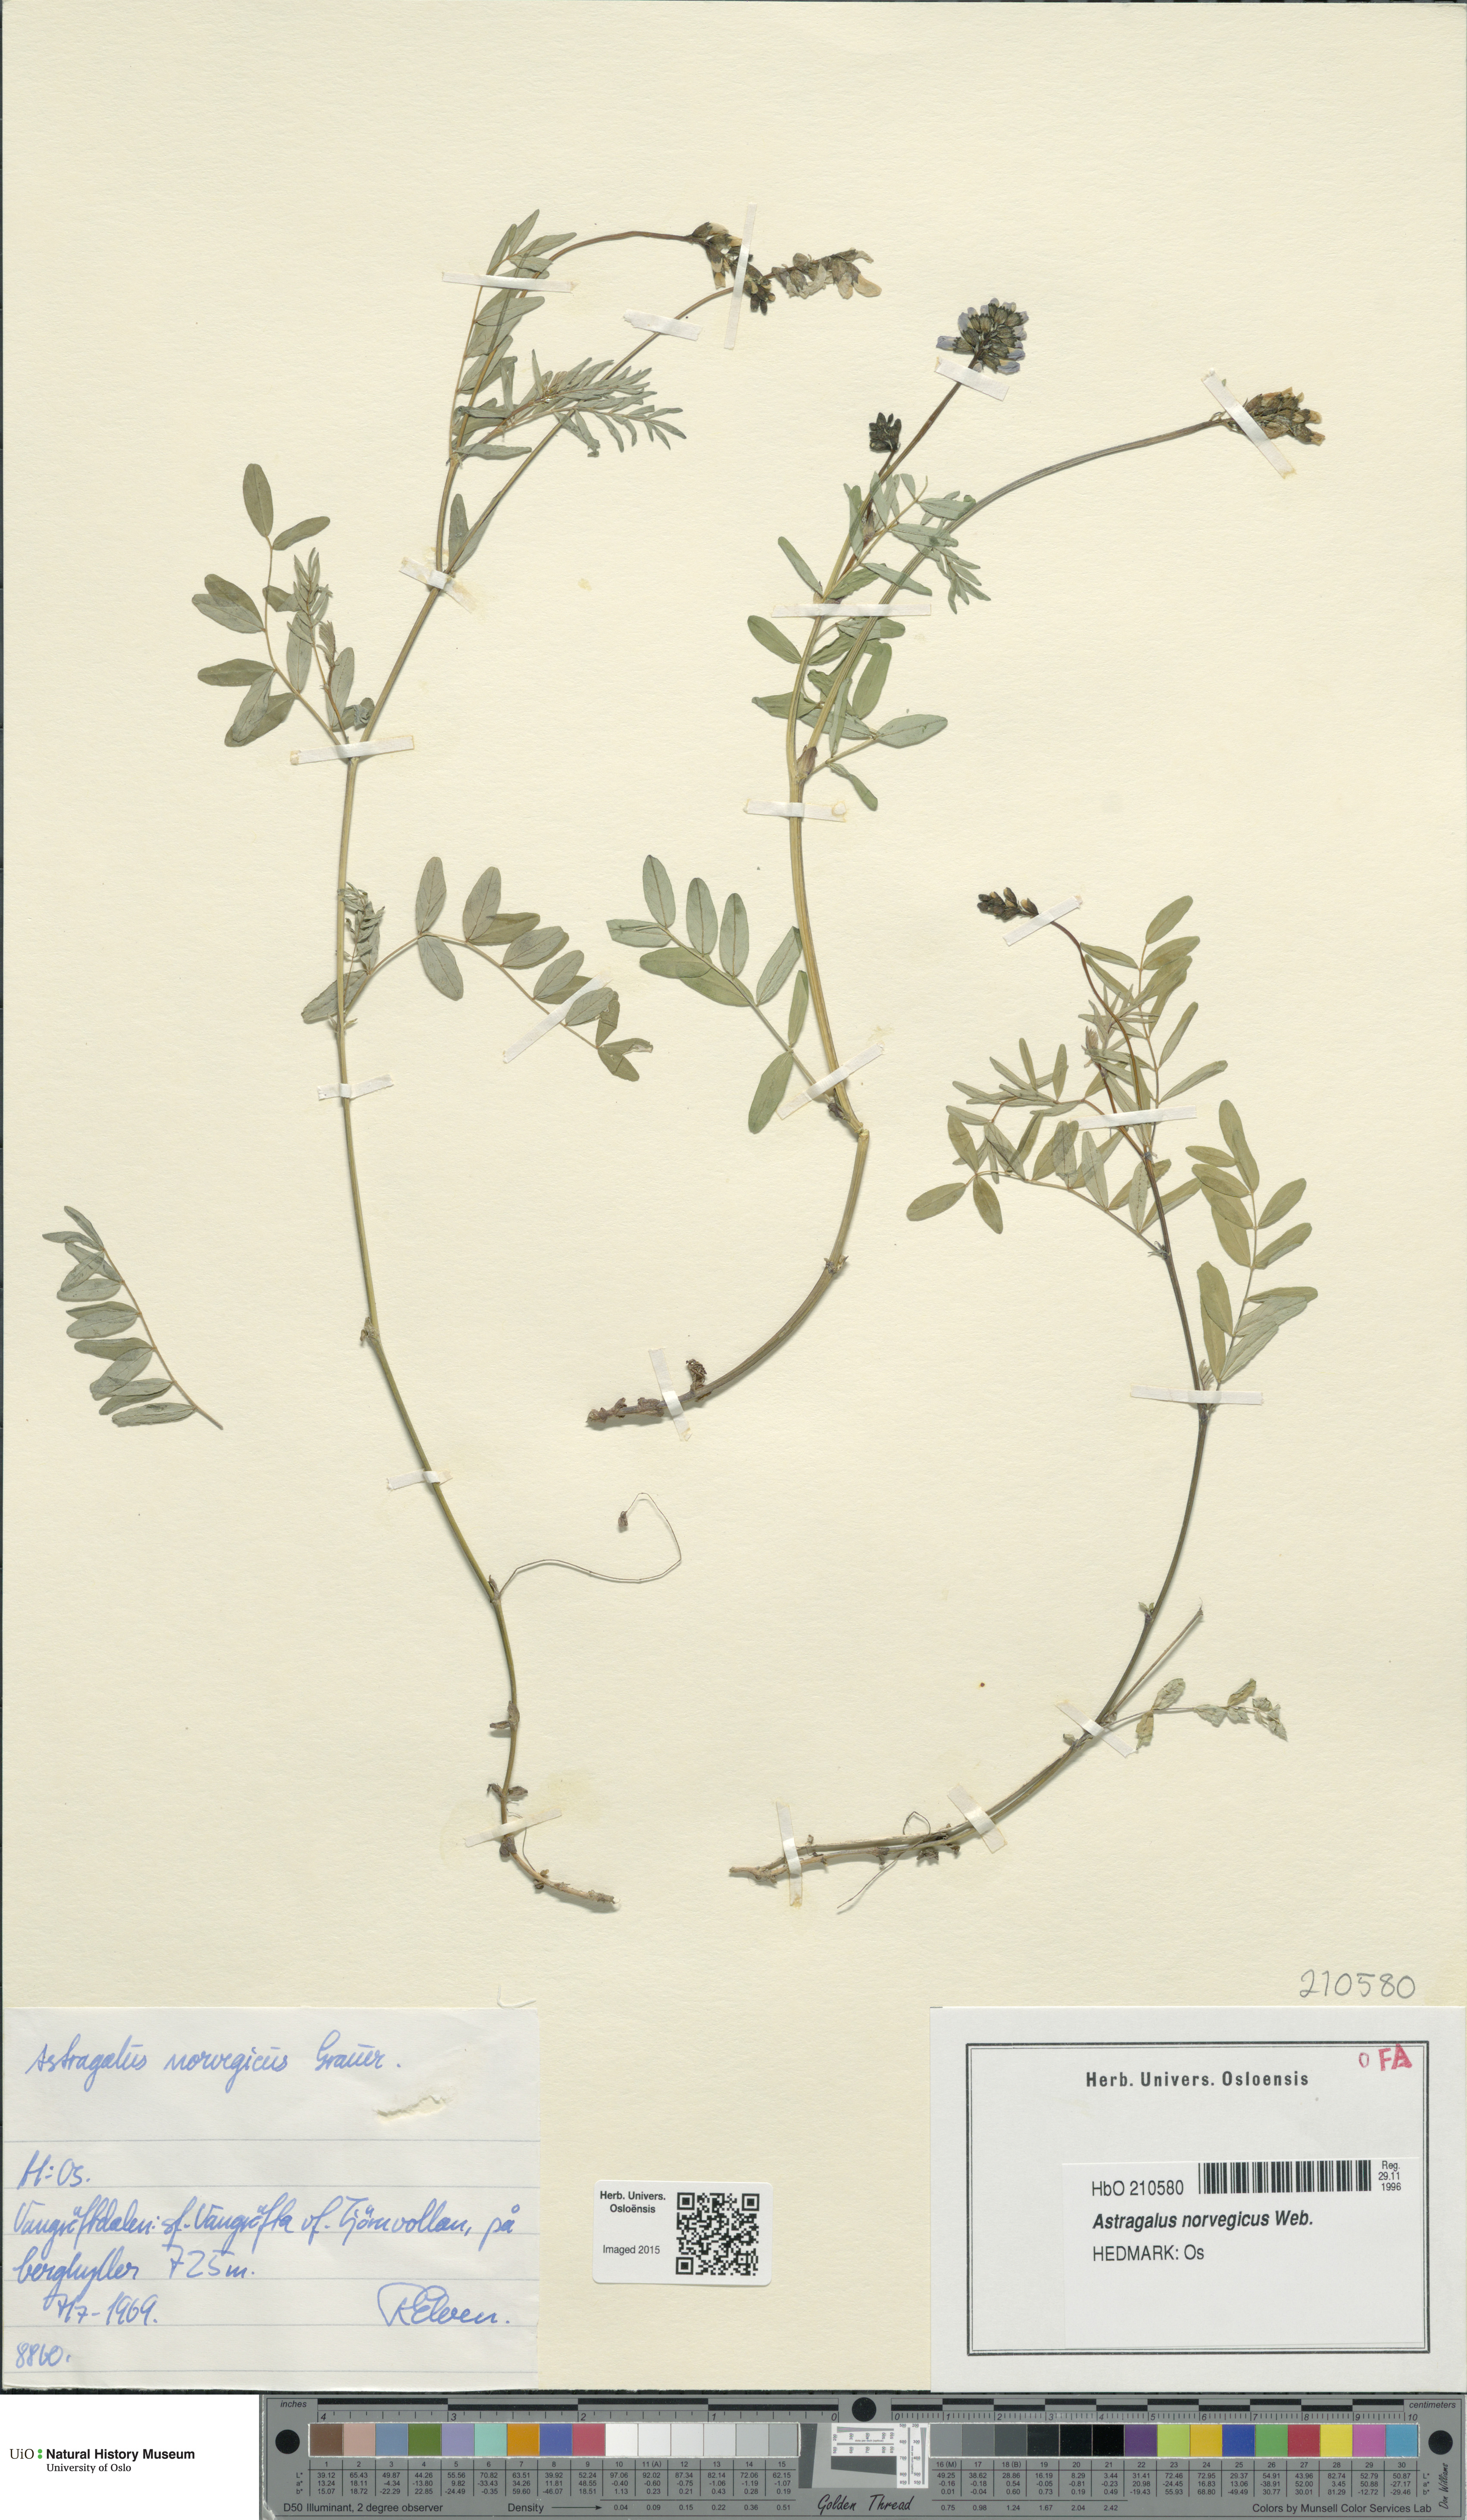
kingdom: Plantae
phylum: Tracheophyta
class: Magnoliopsida
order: Fabales
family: Fabaceae
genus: Astragalus
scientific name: Astragalus norvegicus
